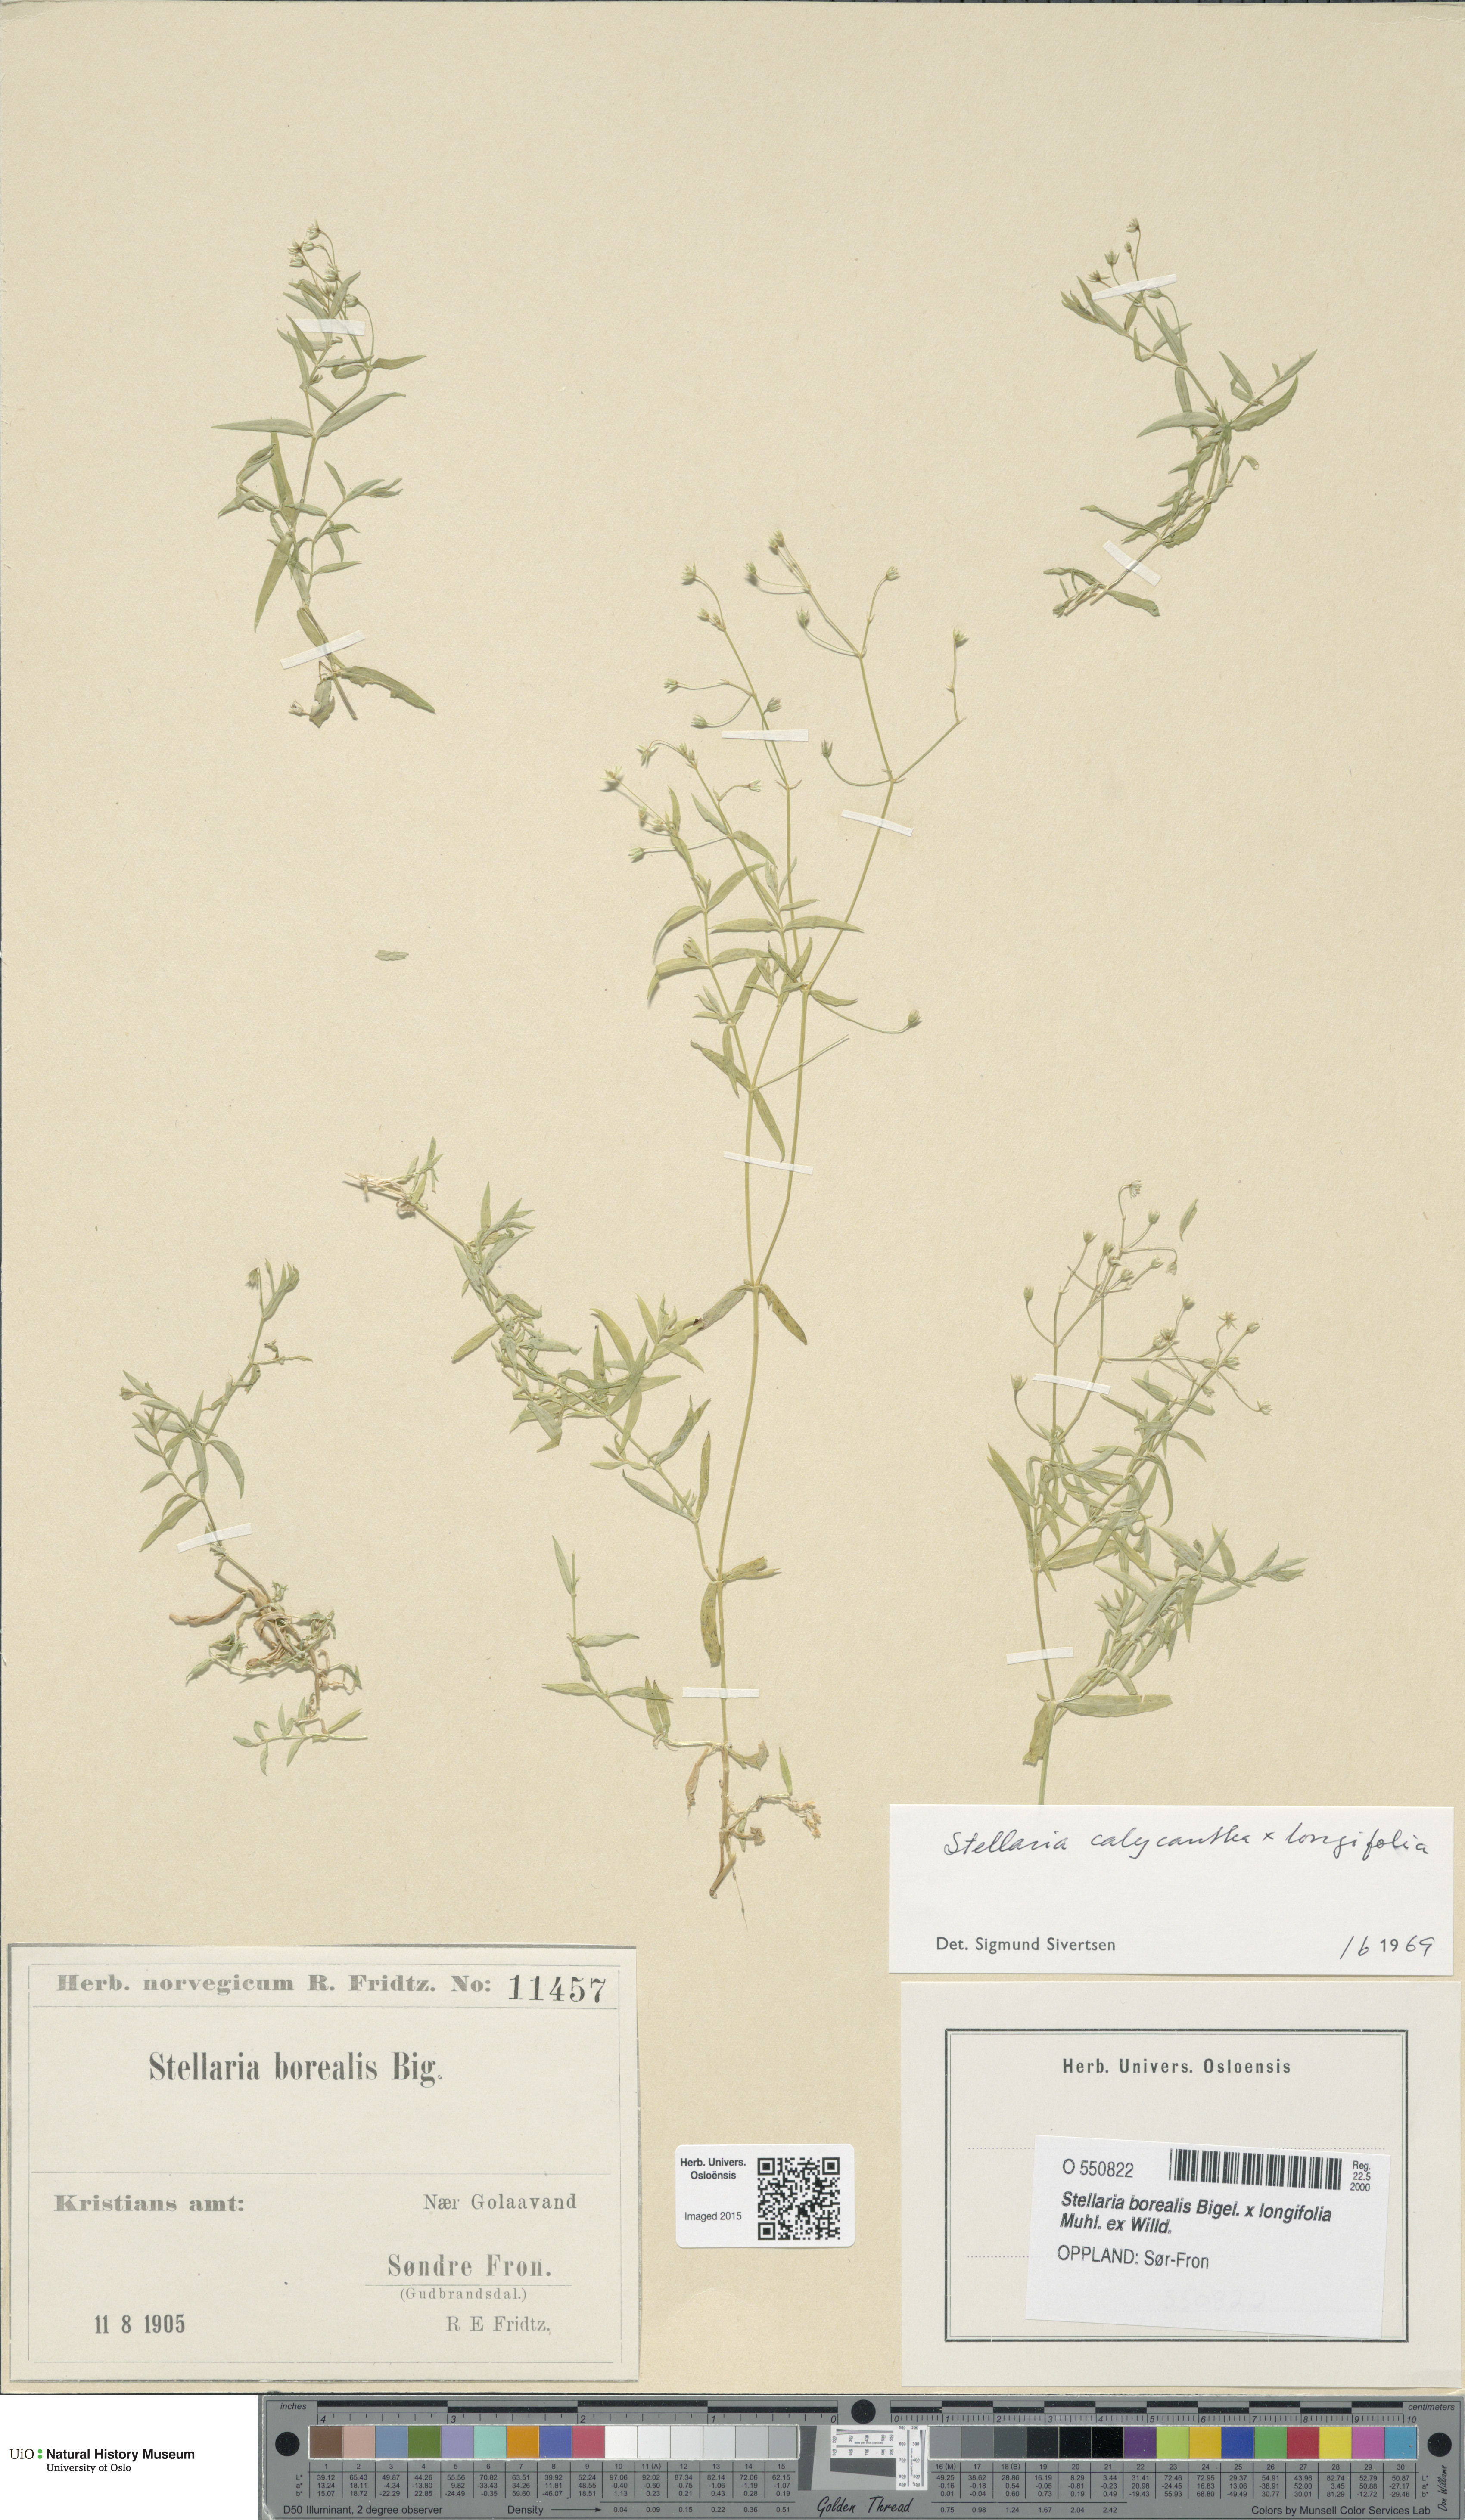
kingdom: Plantae
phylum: Tracheophyta
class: Magnoliopsida
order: Caryophyllales
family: Caryophyllaceae
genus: Stellaria
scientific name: Stellaria
